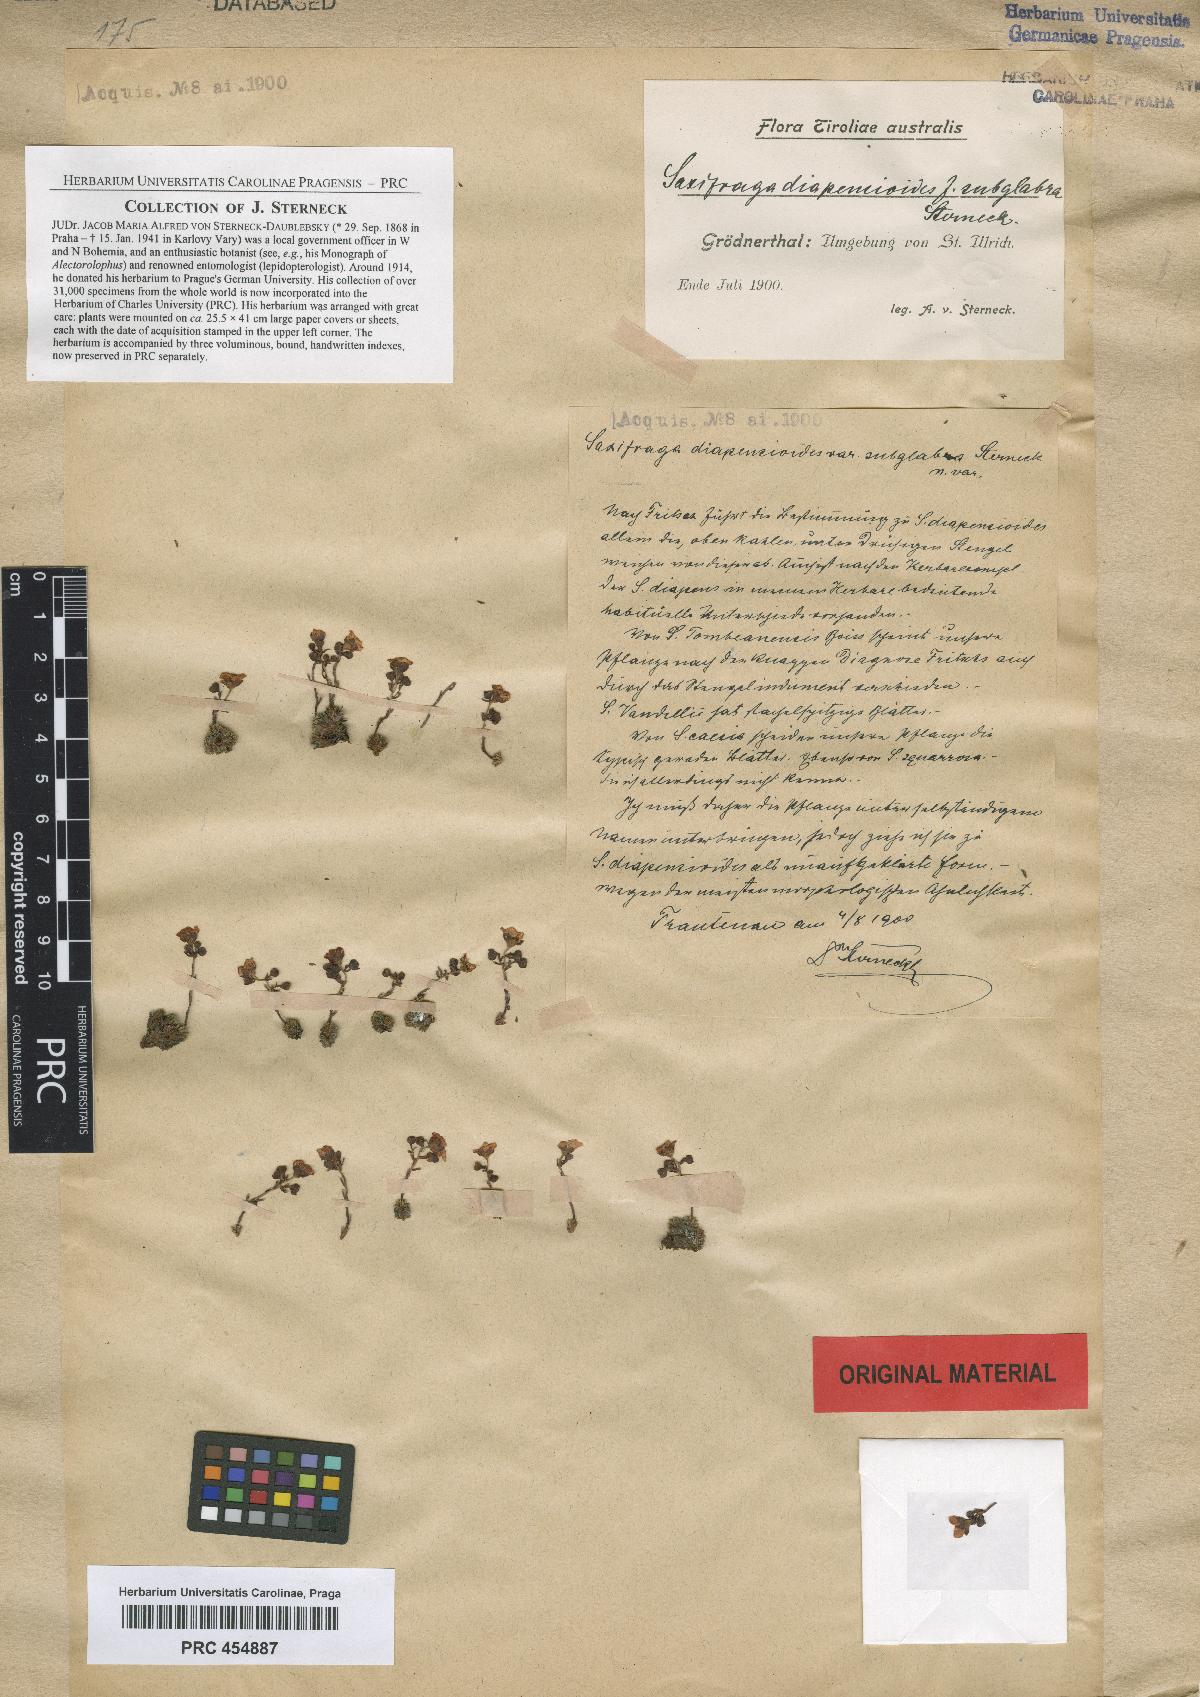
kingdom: Plantae
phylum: Tracheophyta
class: Magnoliopsida
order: Saxifragales
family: Saxifragaceae
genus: Saxifraga
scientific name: Saxifraga diapensioides
